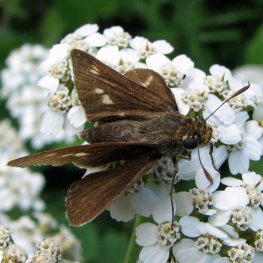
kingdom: Animalia
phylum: Arthropoda
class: Insecta
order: Lepidoptera
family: Hesperiidae
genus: Polites
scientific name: Polites egeremet
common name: Northern Broken-Dash
